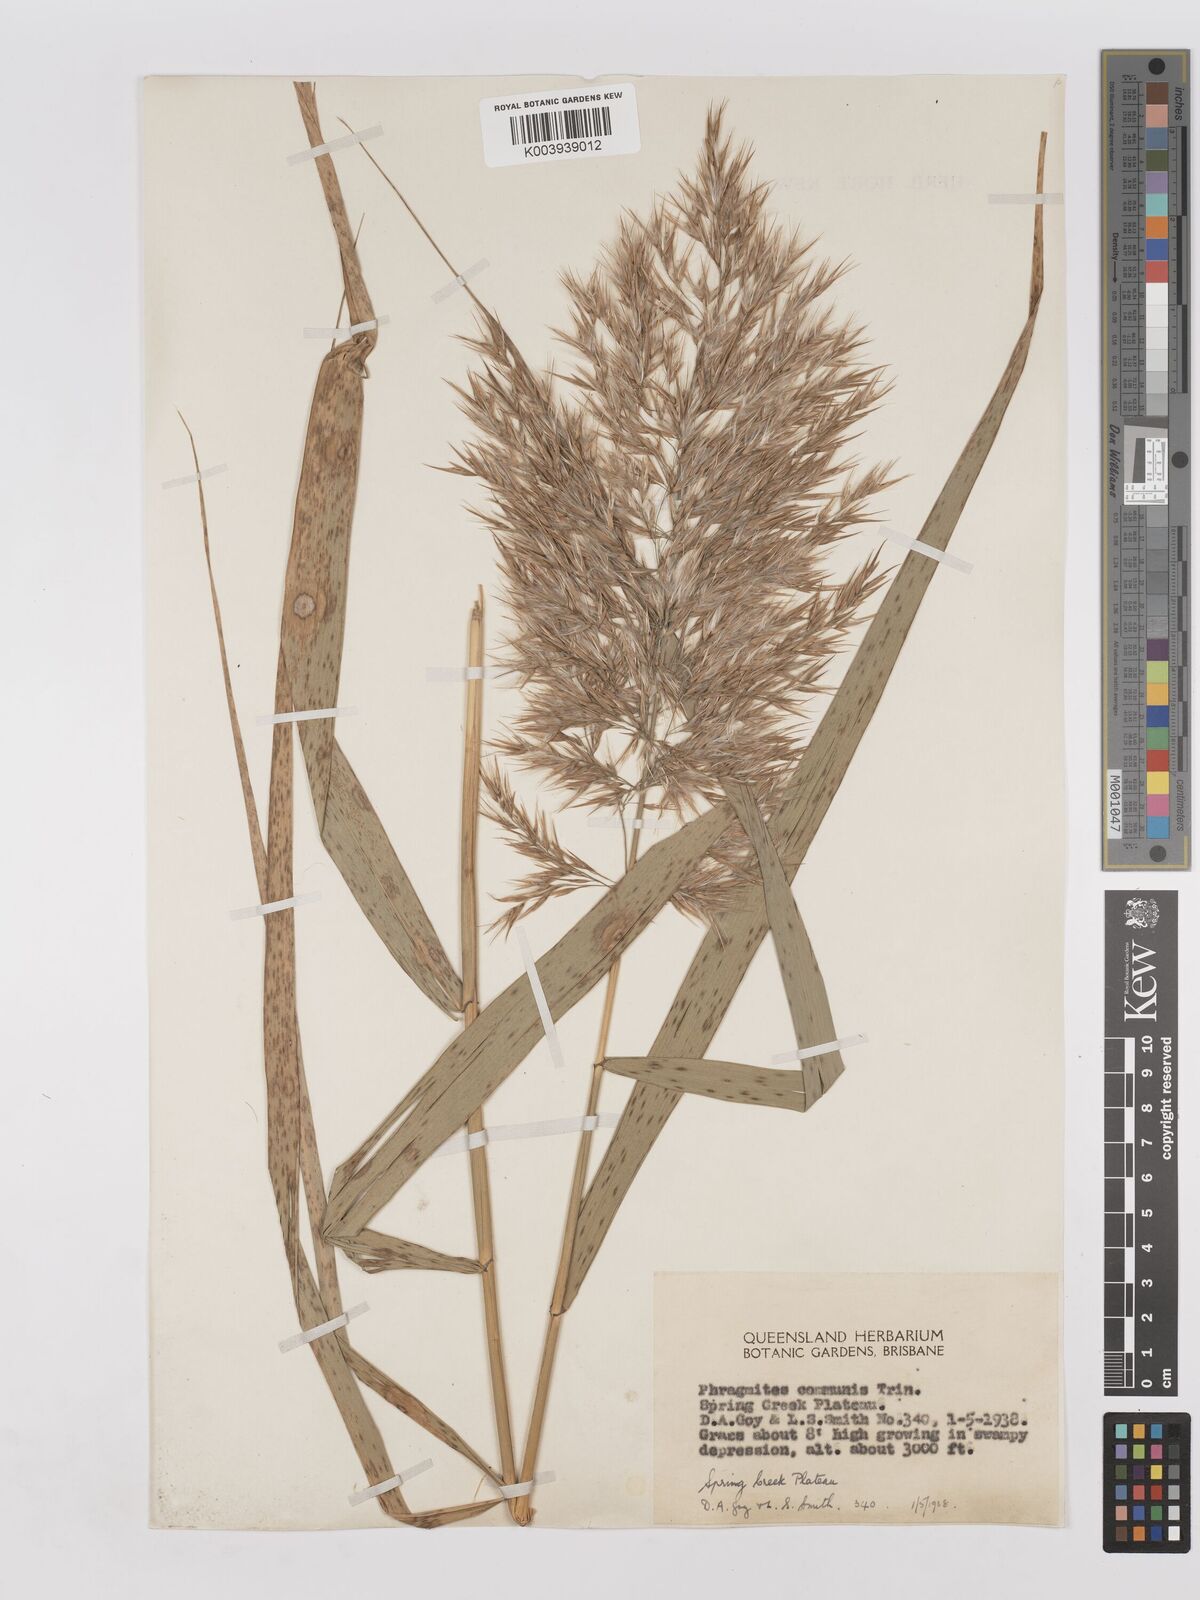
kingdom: Plantae
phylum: Tracheophyta
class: Liliopsida
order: Poales
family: Poaceae
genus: Phragmites
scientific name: Phragmites australis
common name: Common reed
